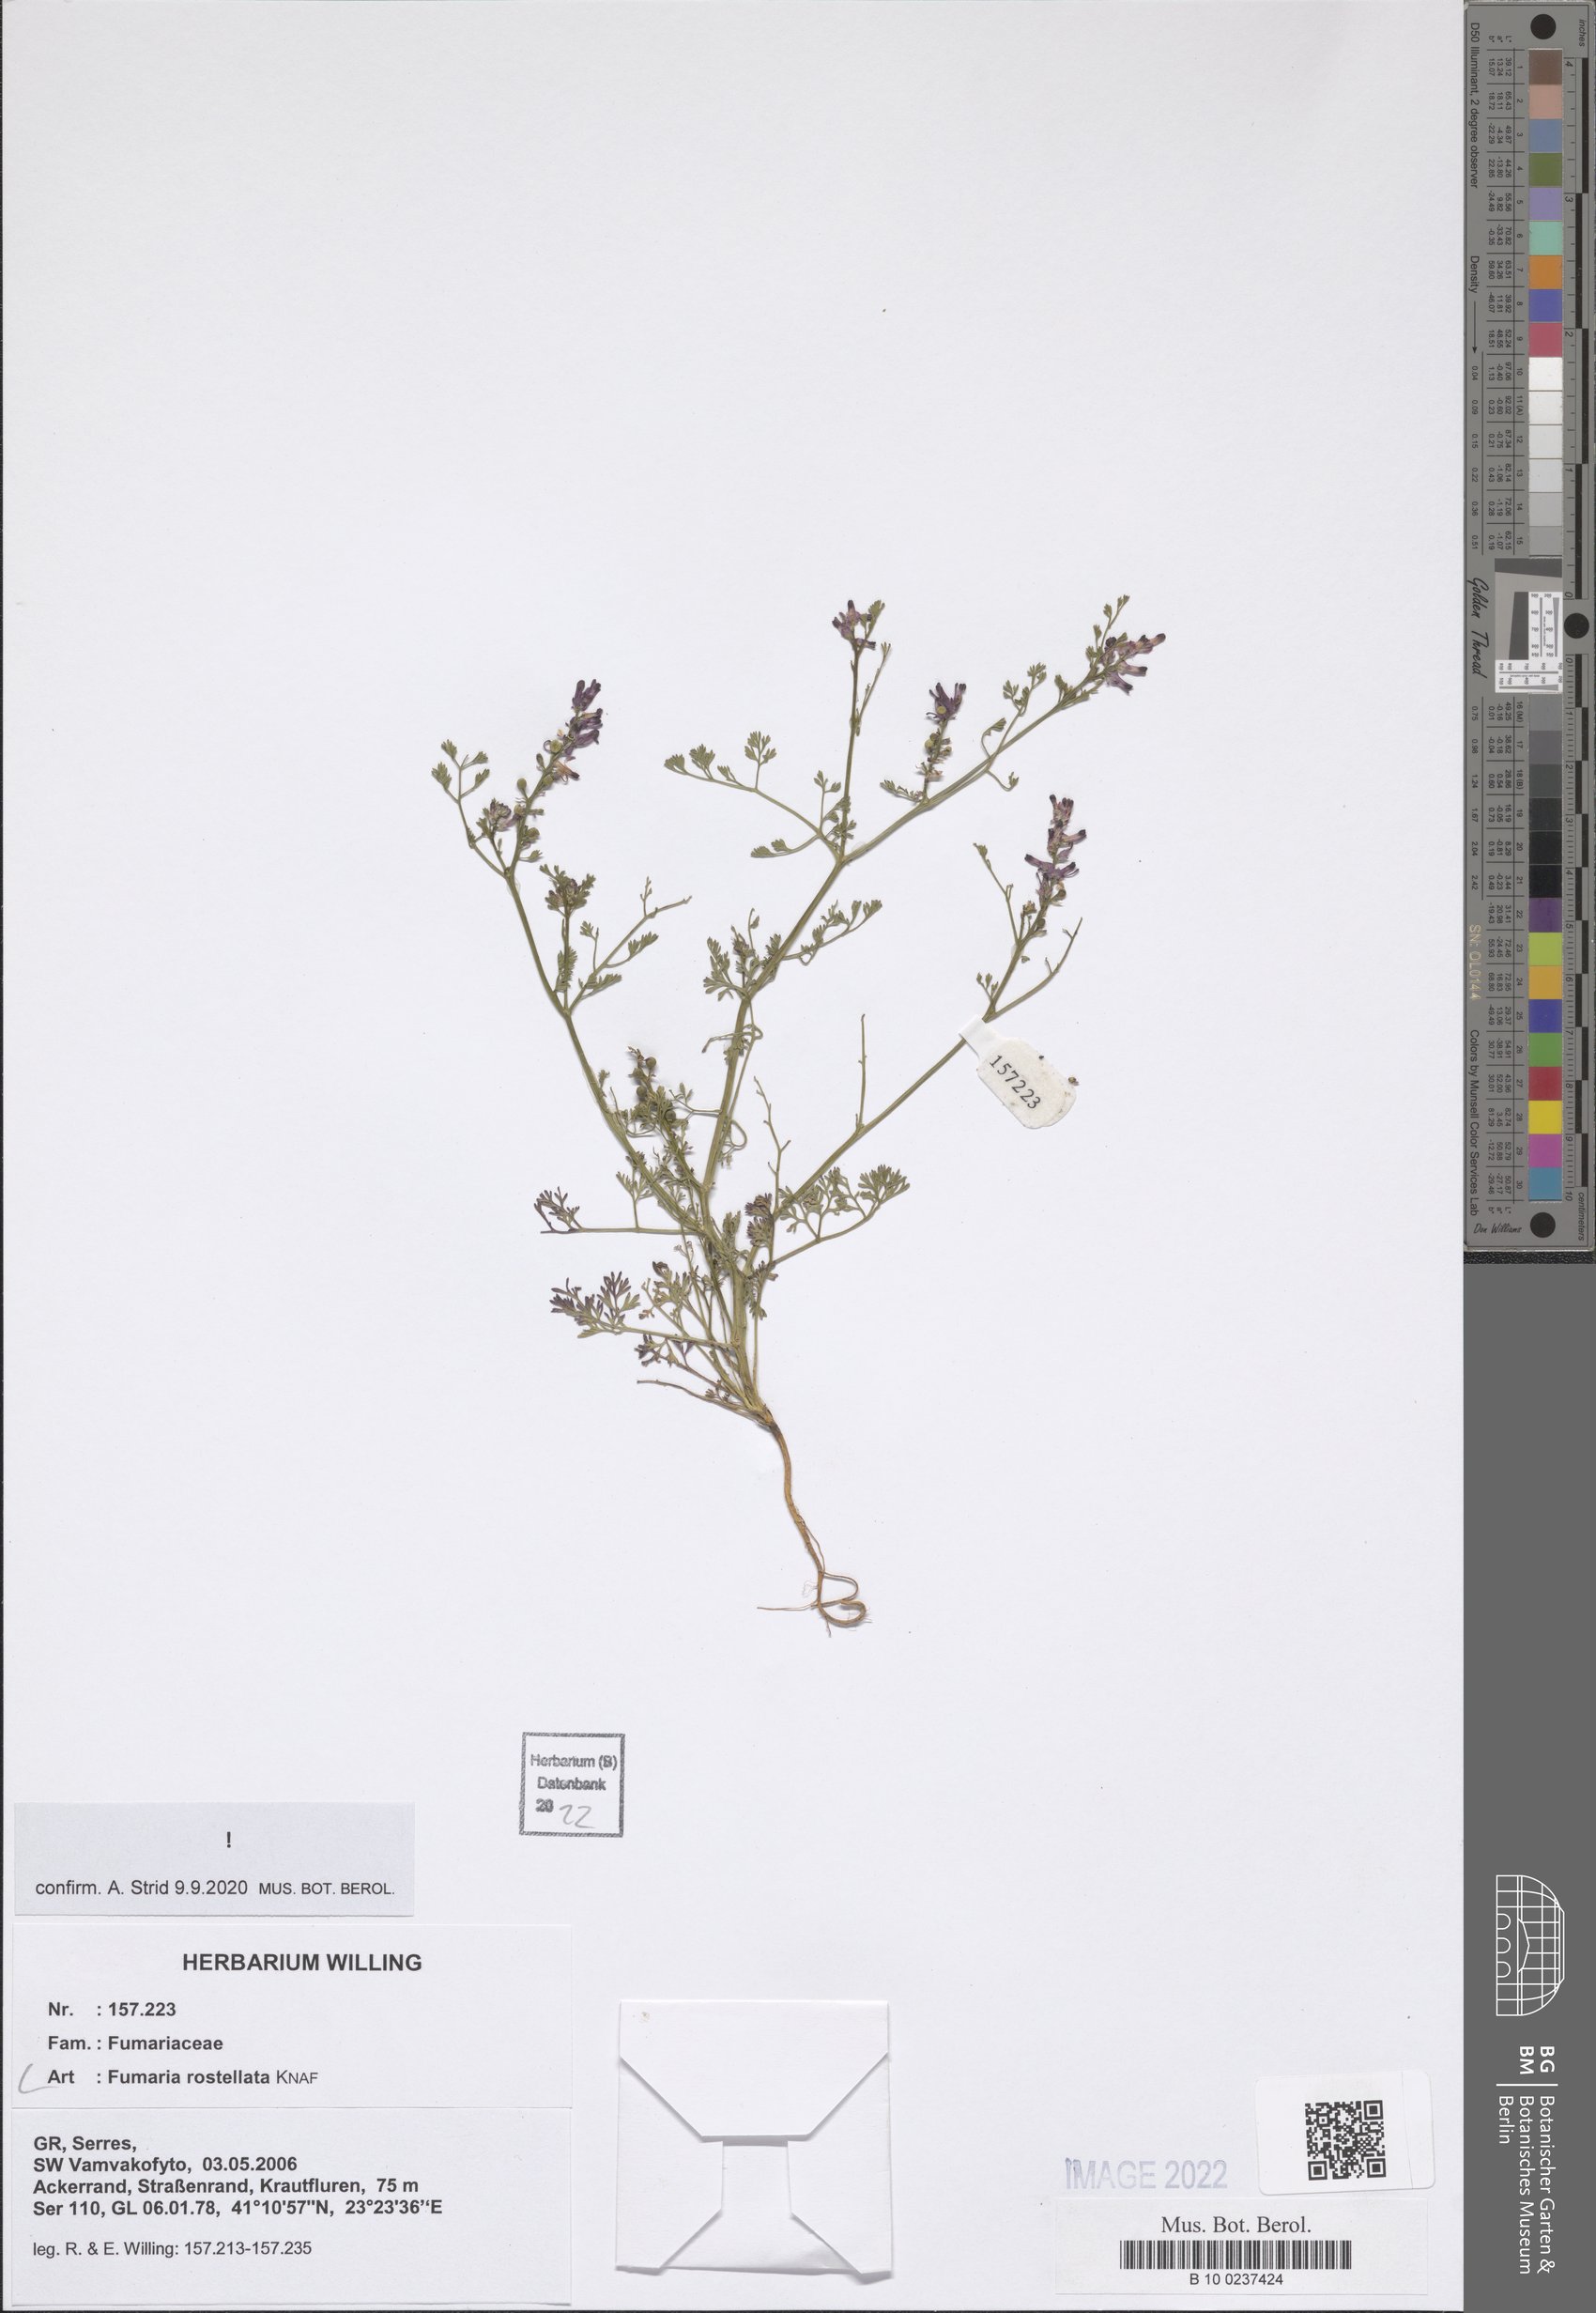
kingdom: Plantae
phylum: Tracheophyta
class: Magnoliopsida
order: Ranunculales
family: Papaveraceae
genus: Fumaria
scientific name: Fumaria rostellata
